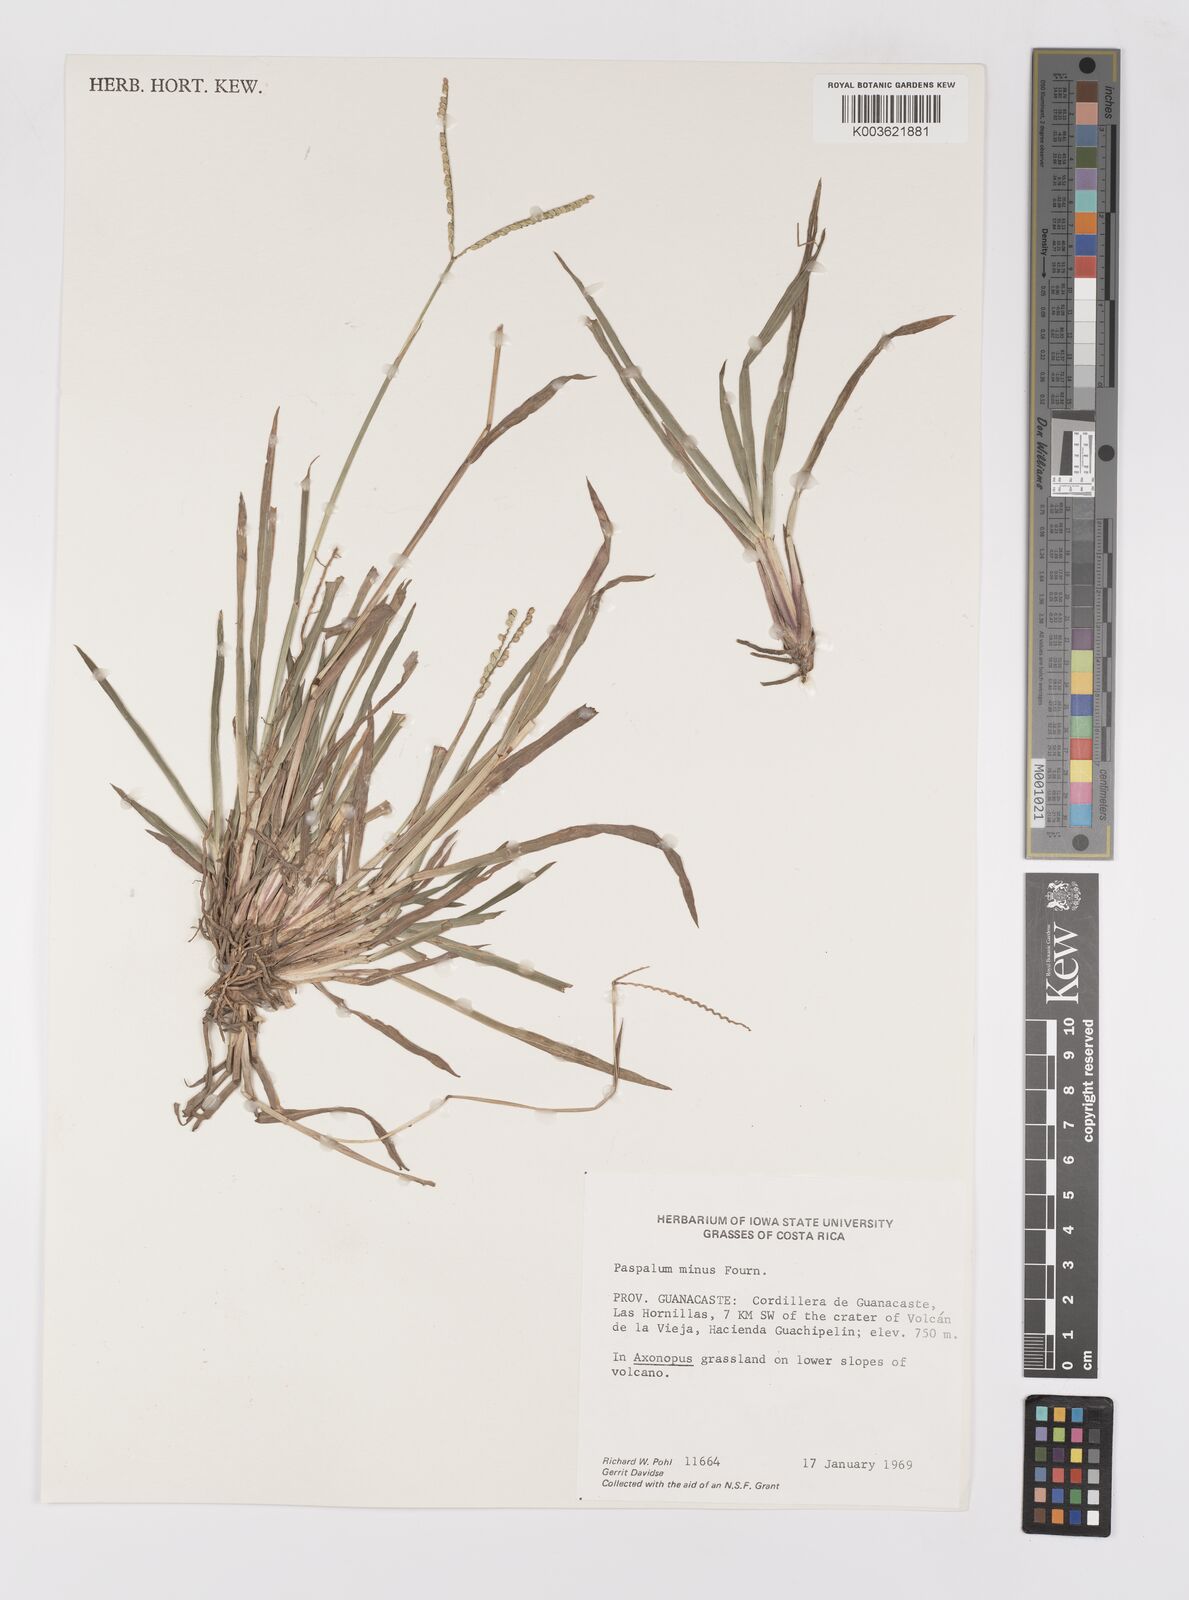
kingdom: Plantae
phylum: Tracheophyta
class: Liliopsida
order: Poales
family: Poaceae
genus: Paspalum
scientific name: Paspalum minus
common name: Matted paspalum
